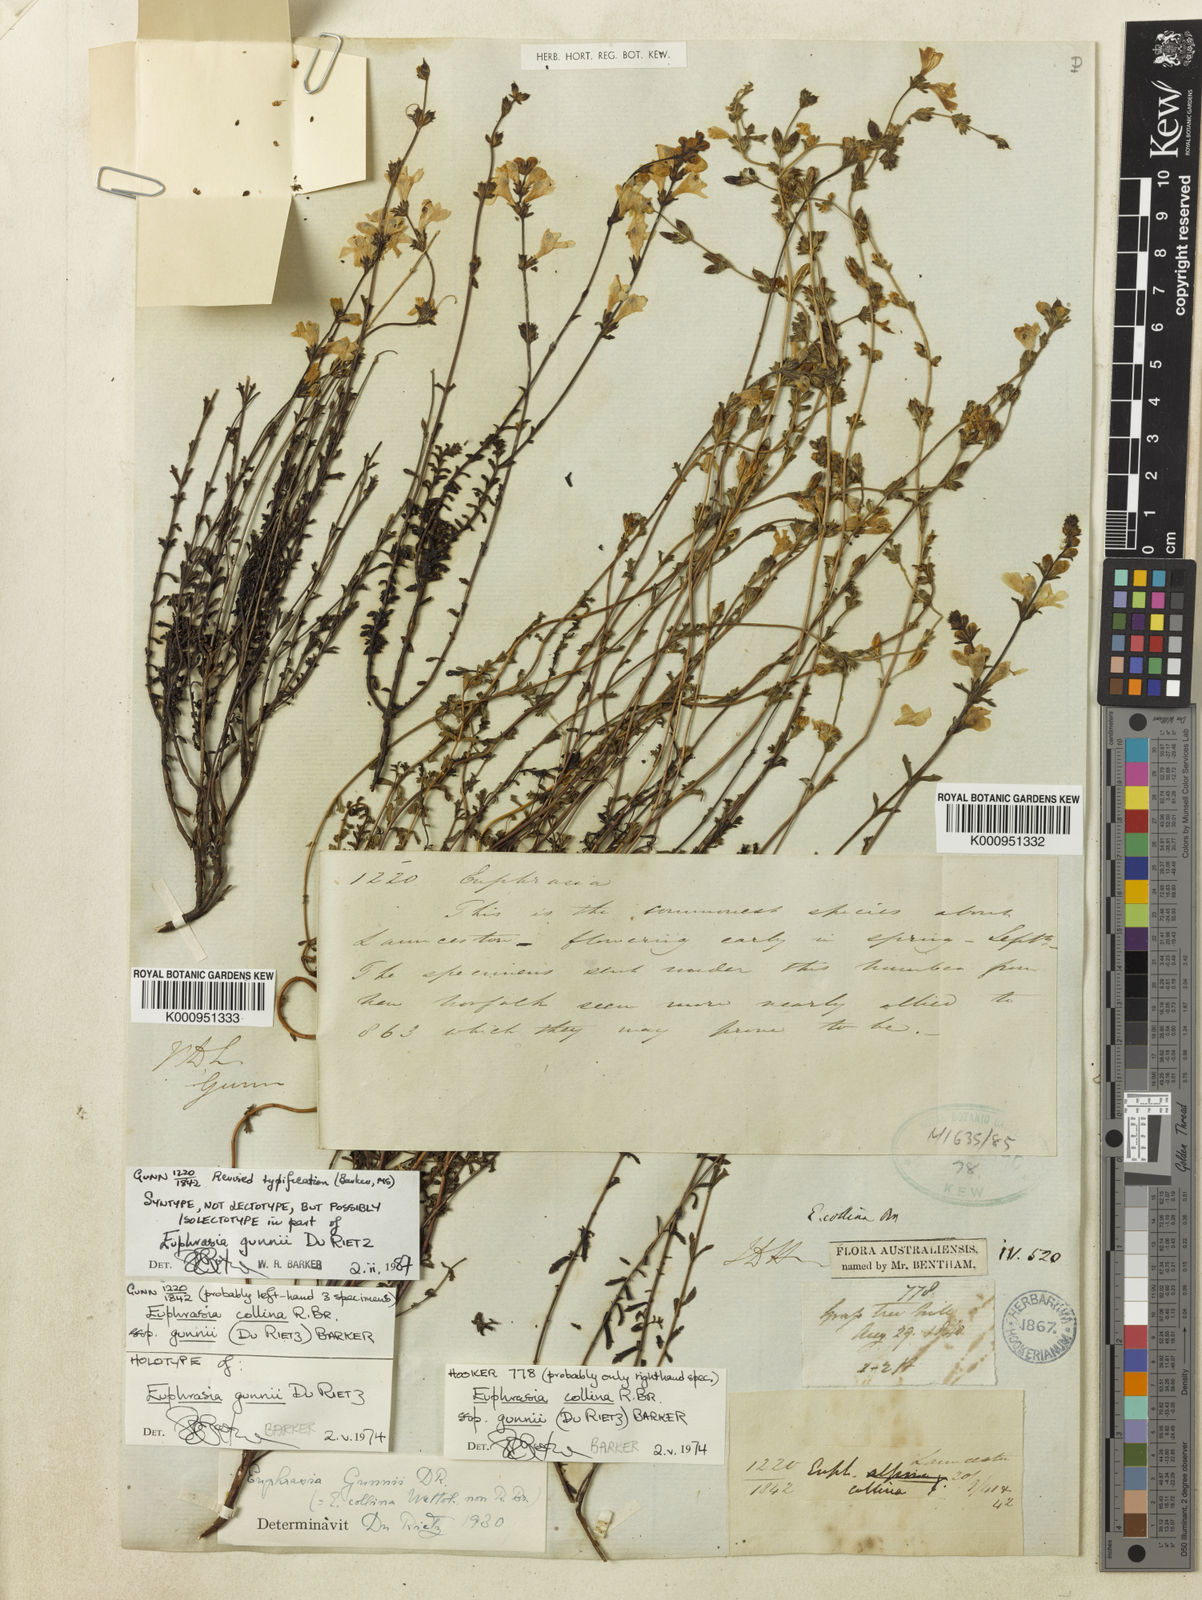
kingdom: Plantae
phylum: Tracheophyta
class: Magnoliopsida
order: Lamiales
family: Orobanchaceae
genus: Euphrasia
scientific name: Euphrasia collina
